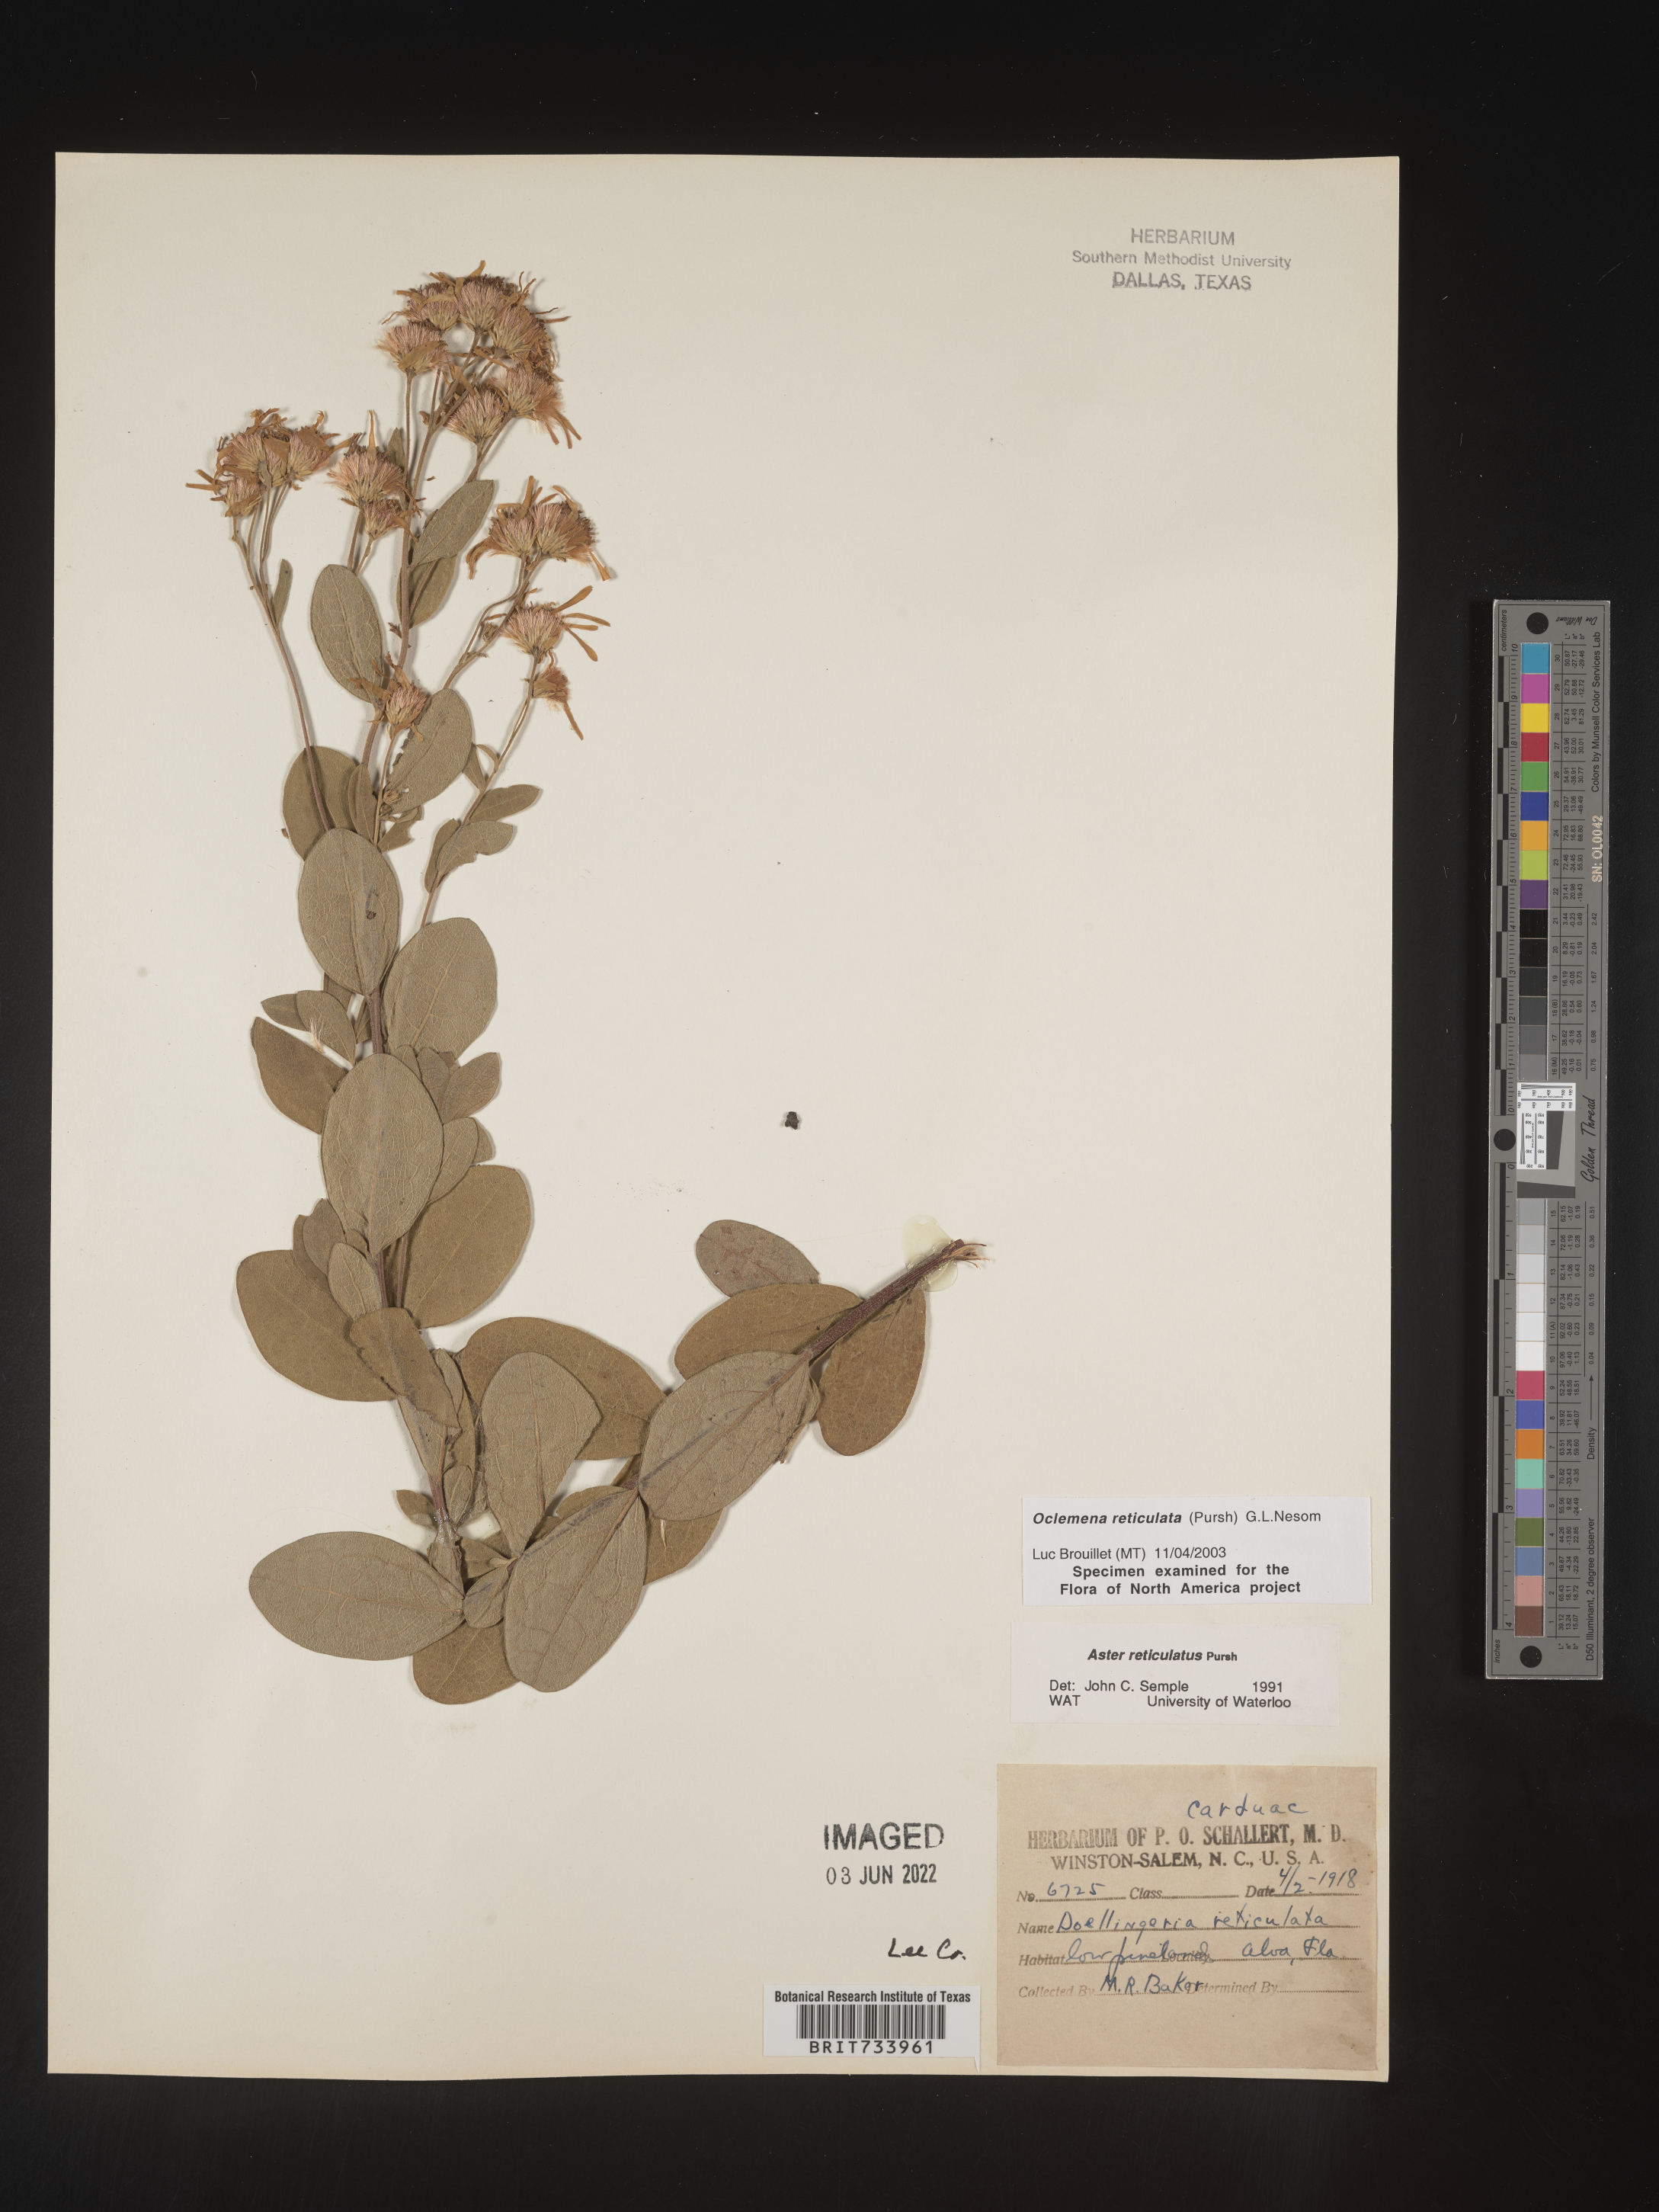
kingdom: Plantae
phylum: Tracheophyta
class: Magnoliopsida
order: Asterales
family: Asteraceae
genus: Oclemena
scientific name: Oclemena reticulata
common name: Pinebarren aster
